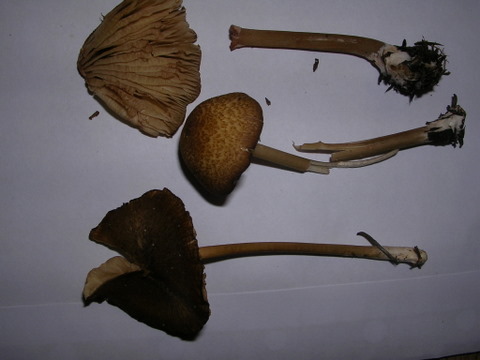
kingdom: Fungi
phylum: Basidiomycota
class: Agaricomycetes
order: Agaricales
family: Entolomataceae
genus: Entoloma
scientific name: Entoloma formosum
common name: brungul rødblad
